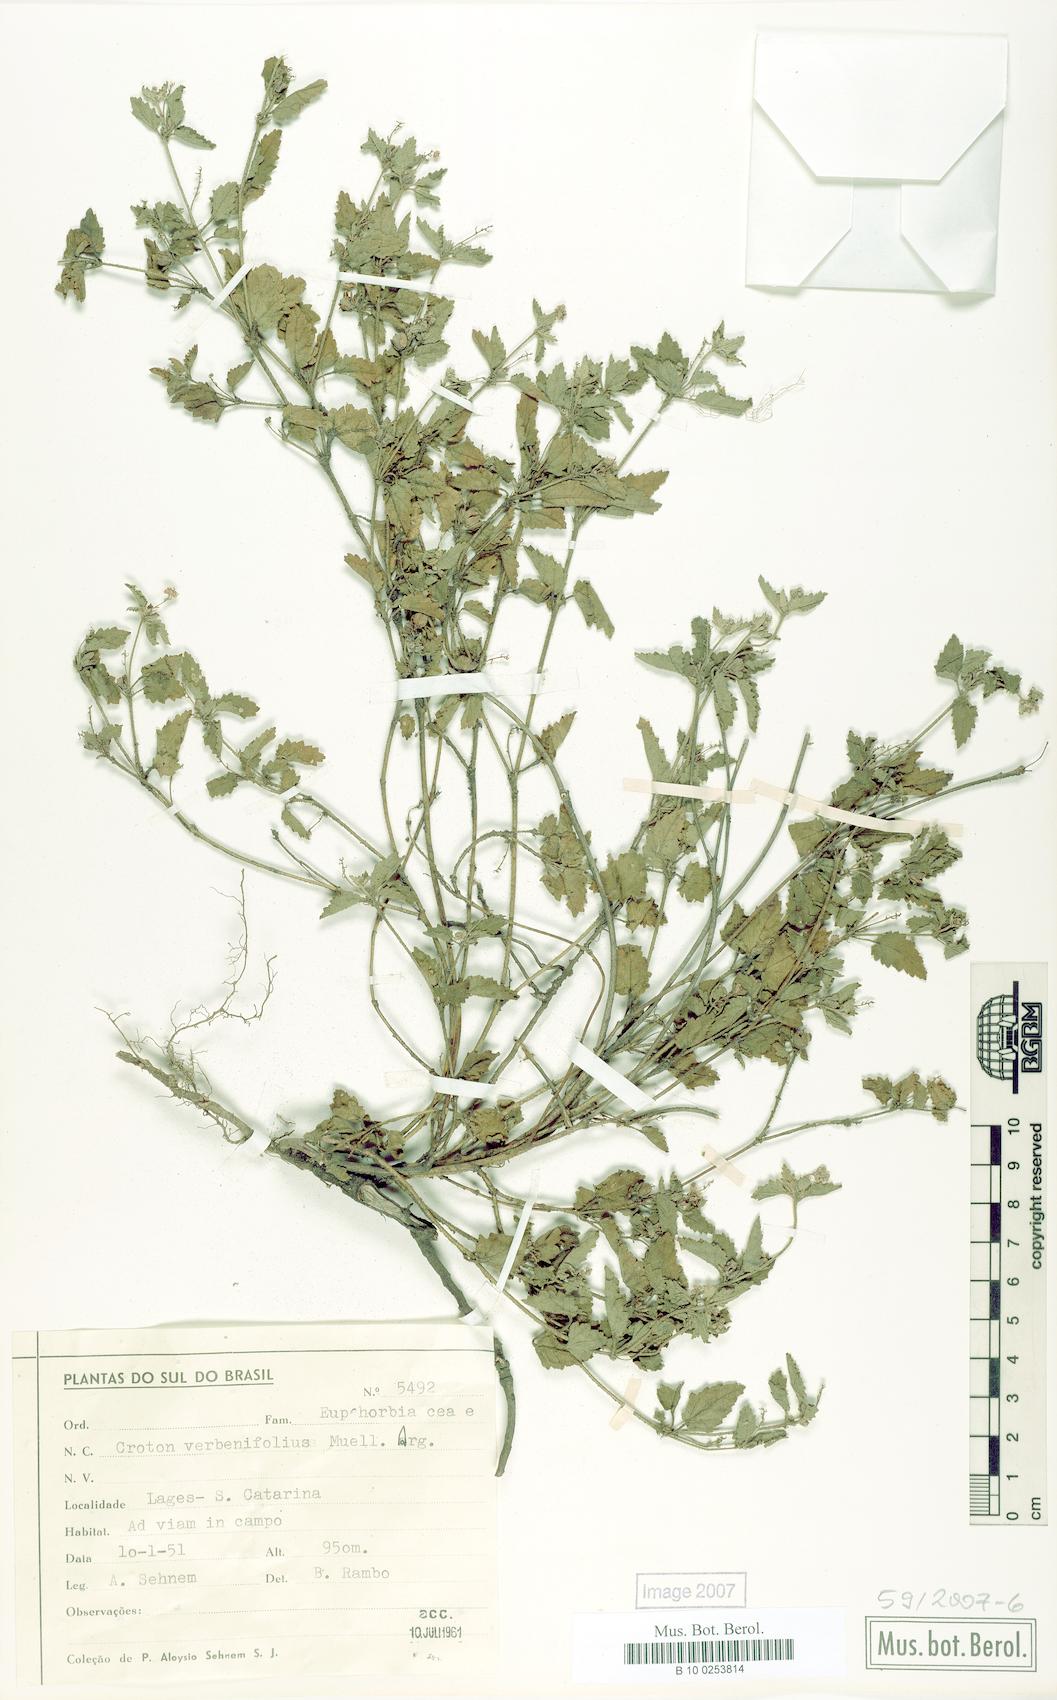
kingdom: Plantae
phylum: Tracheophyta
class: Magnoliopsida
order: Malpighiales
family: Euphorbiaceae
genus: Croton
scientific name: Croton verbenifolius
